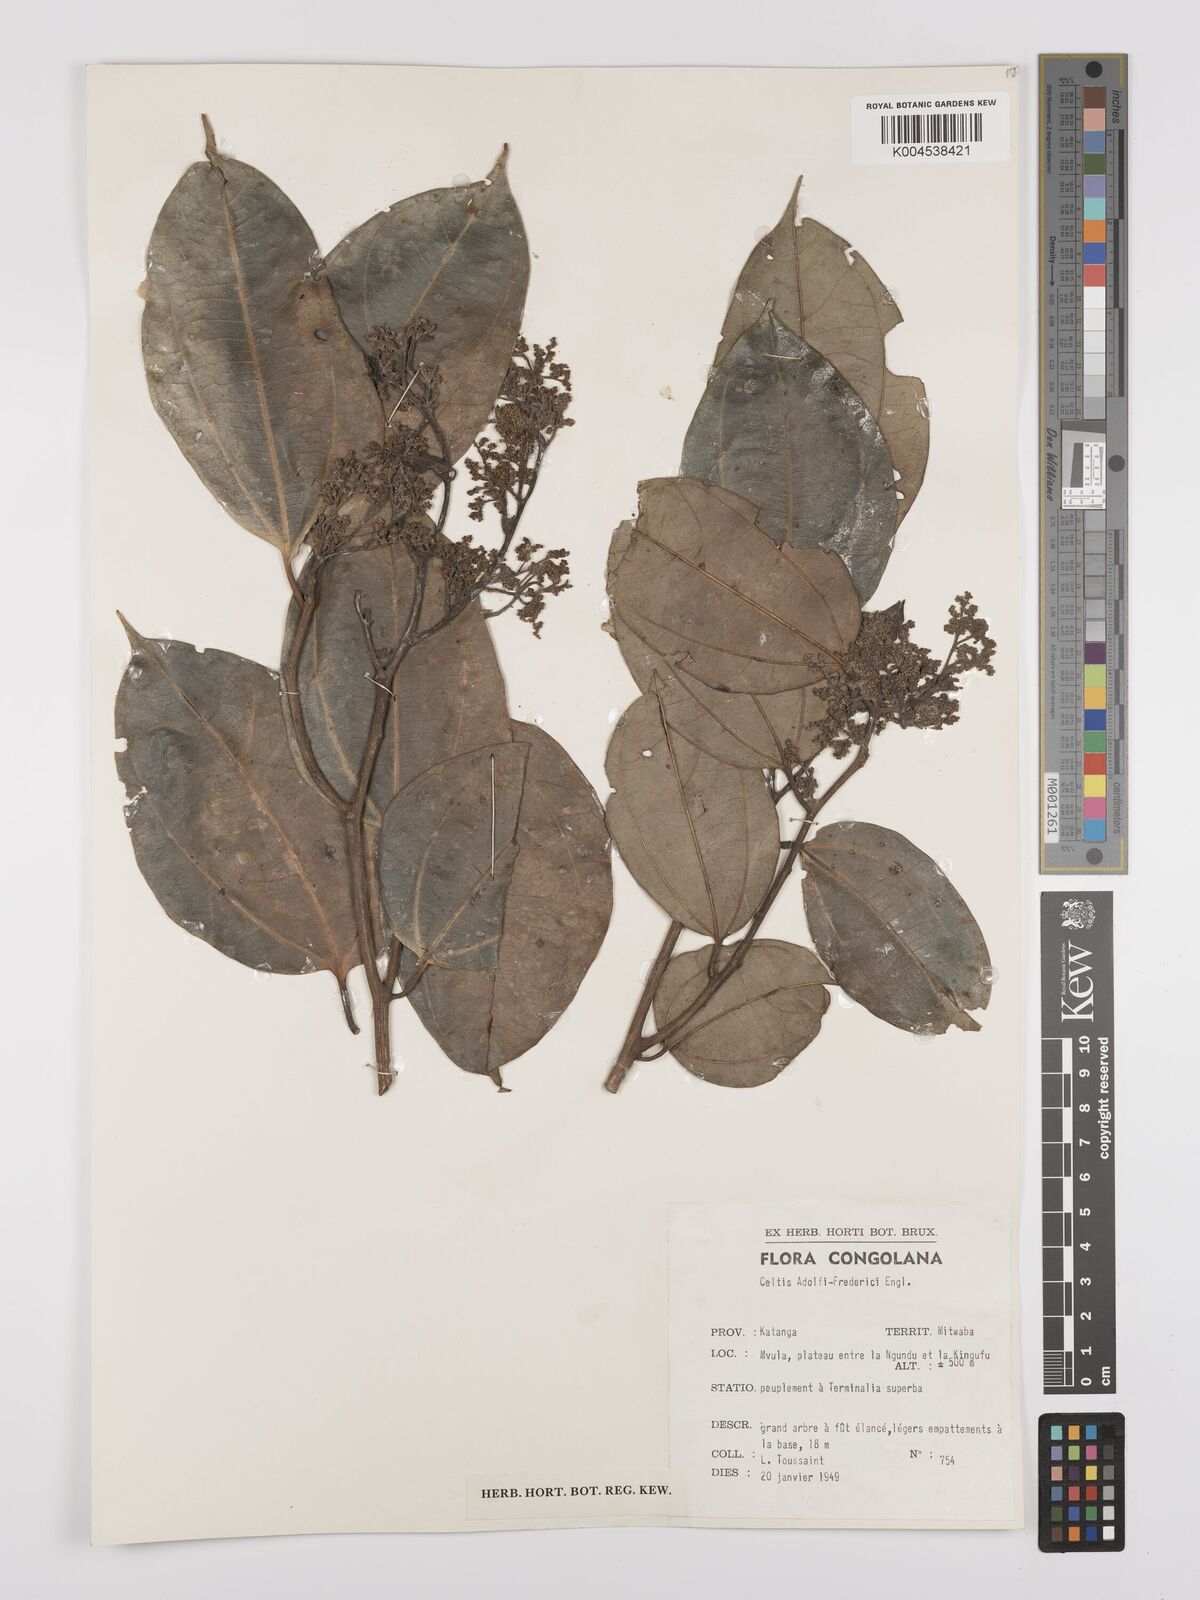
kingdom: Plantae
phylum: Tracheophyta
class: Magnoliopsida
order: Rosales
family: Cannabaceae
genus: Celtis
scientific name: Celtis adolfi-friderici
